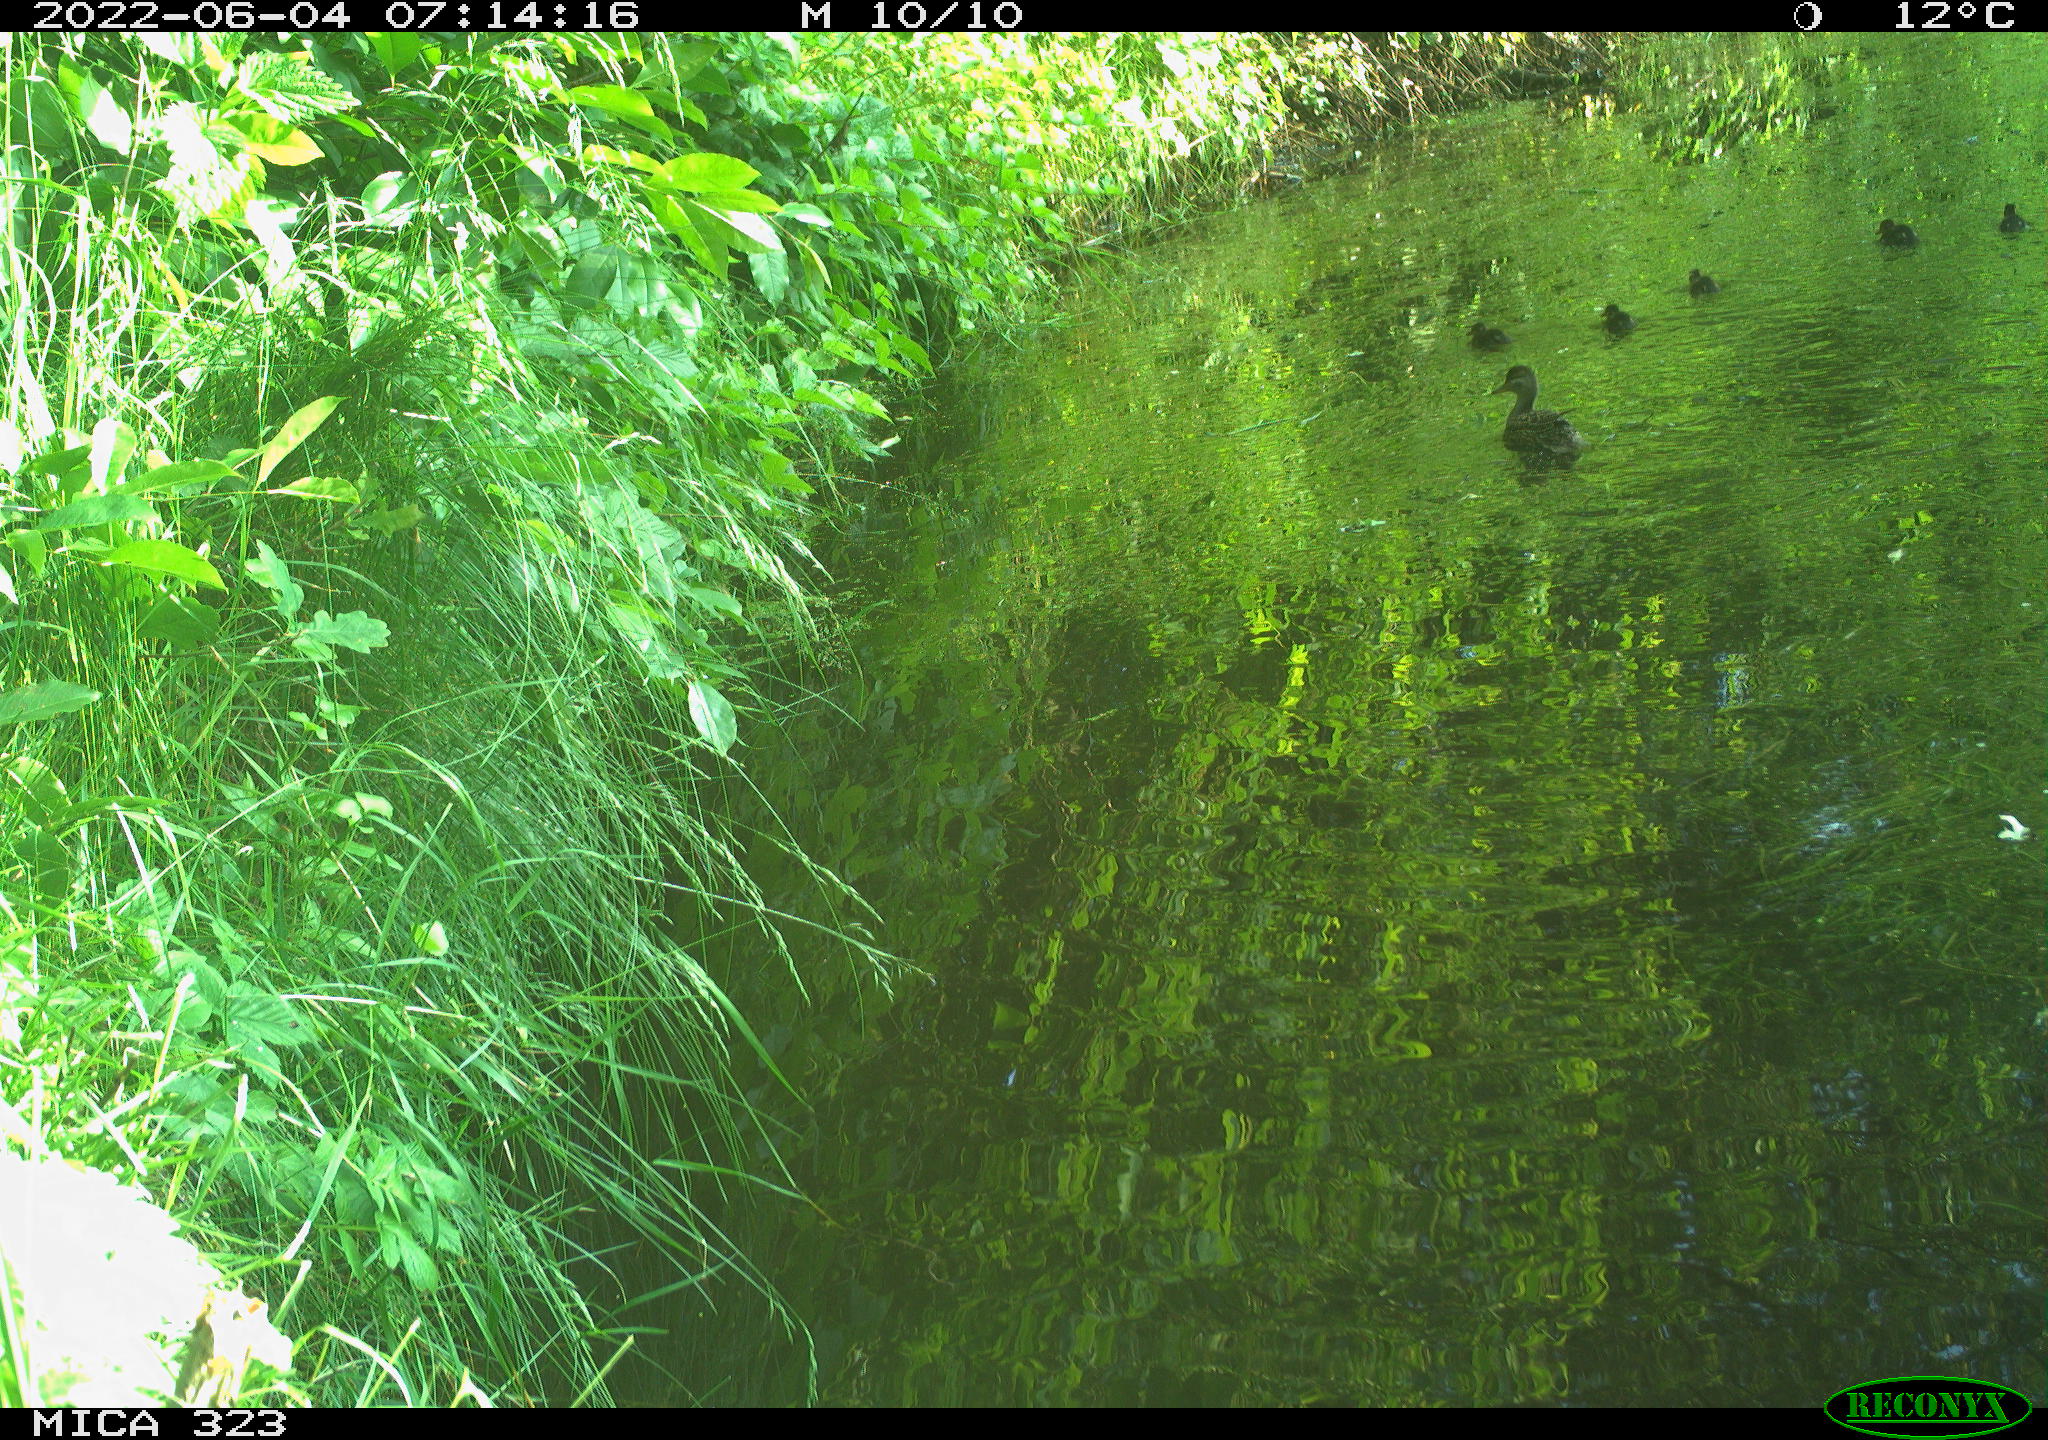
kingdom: Animalia
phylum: Chordata
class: Aves
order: Anseriformes
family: Anatidae
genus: Anas
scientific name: Anas platyrhynchos
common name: Mallard
